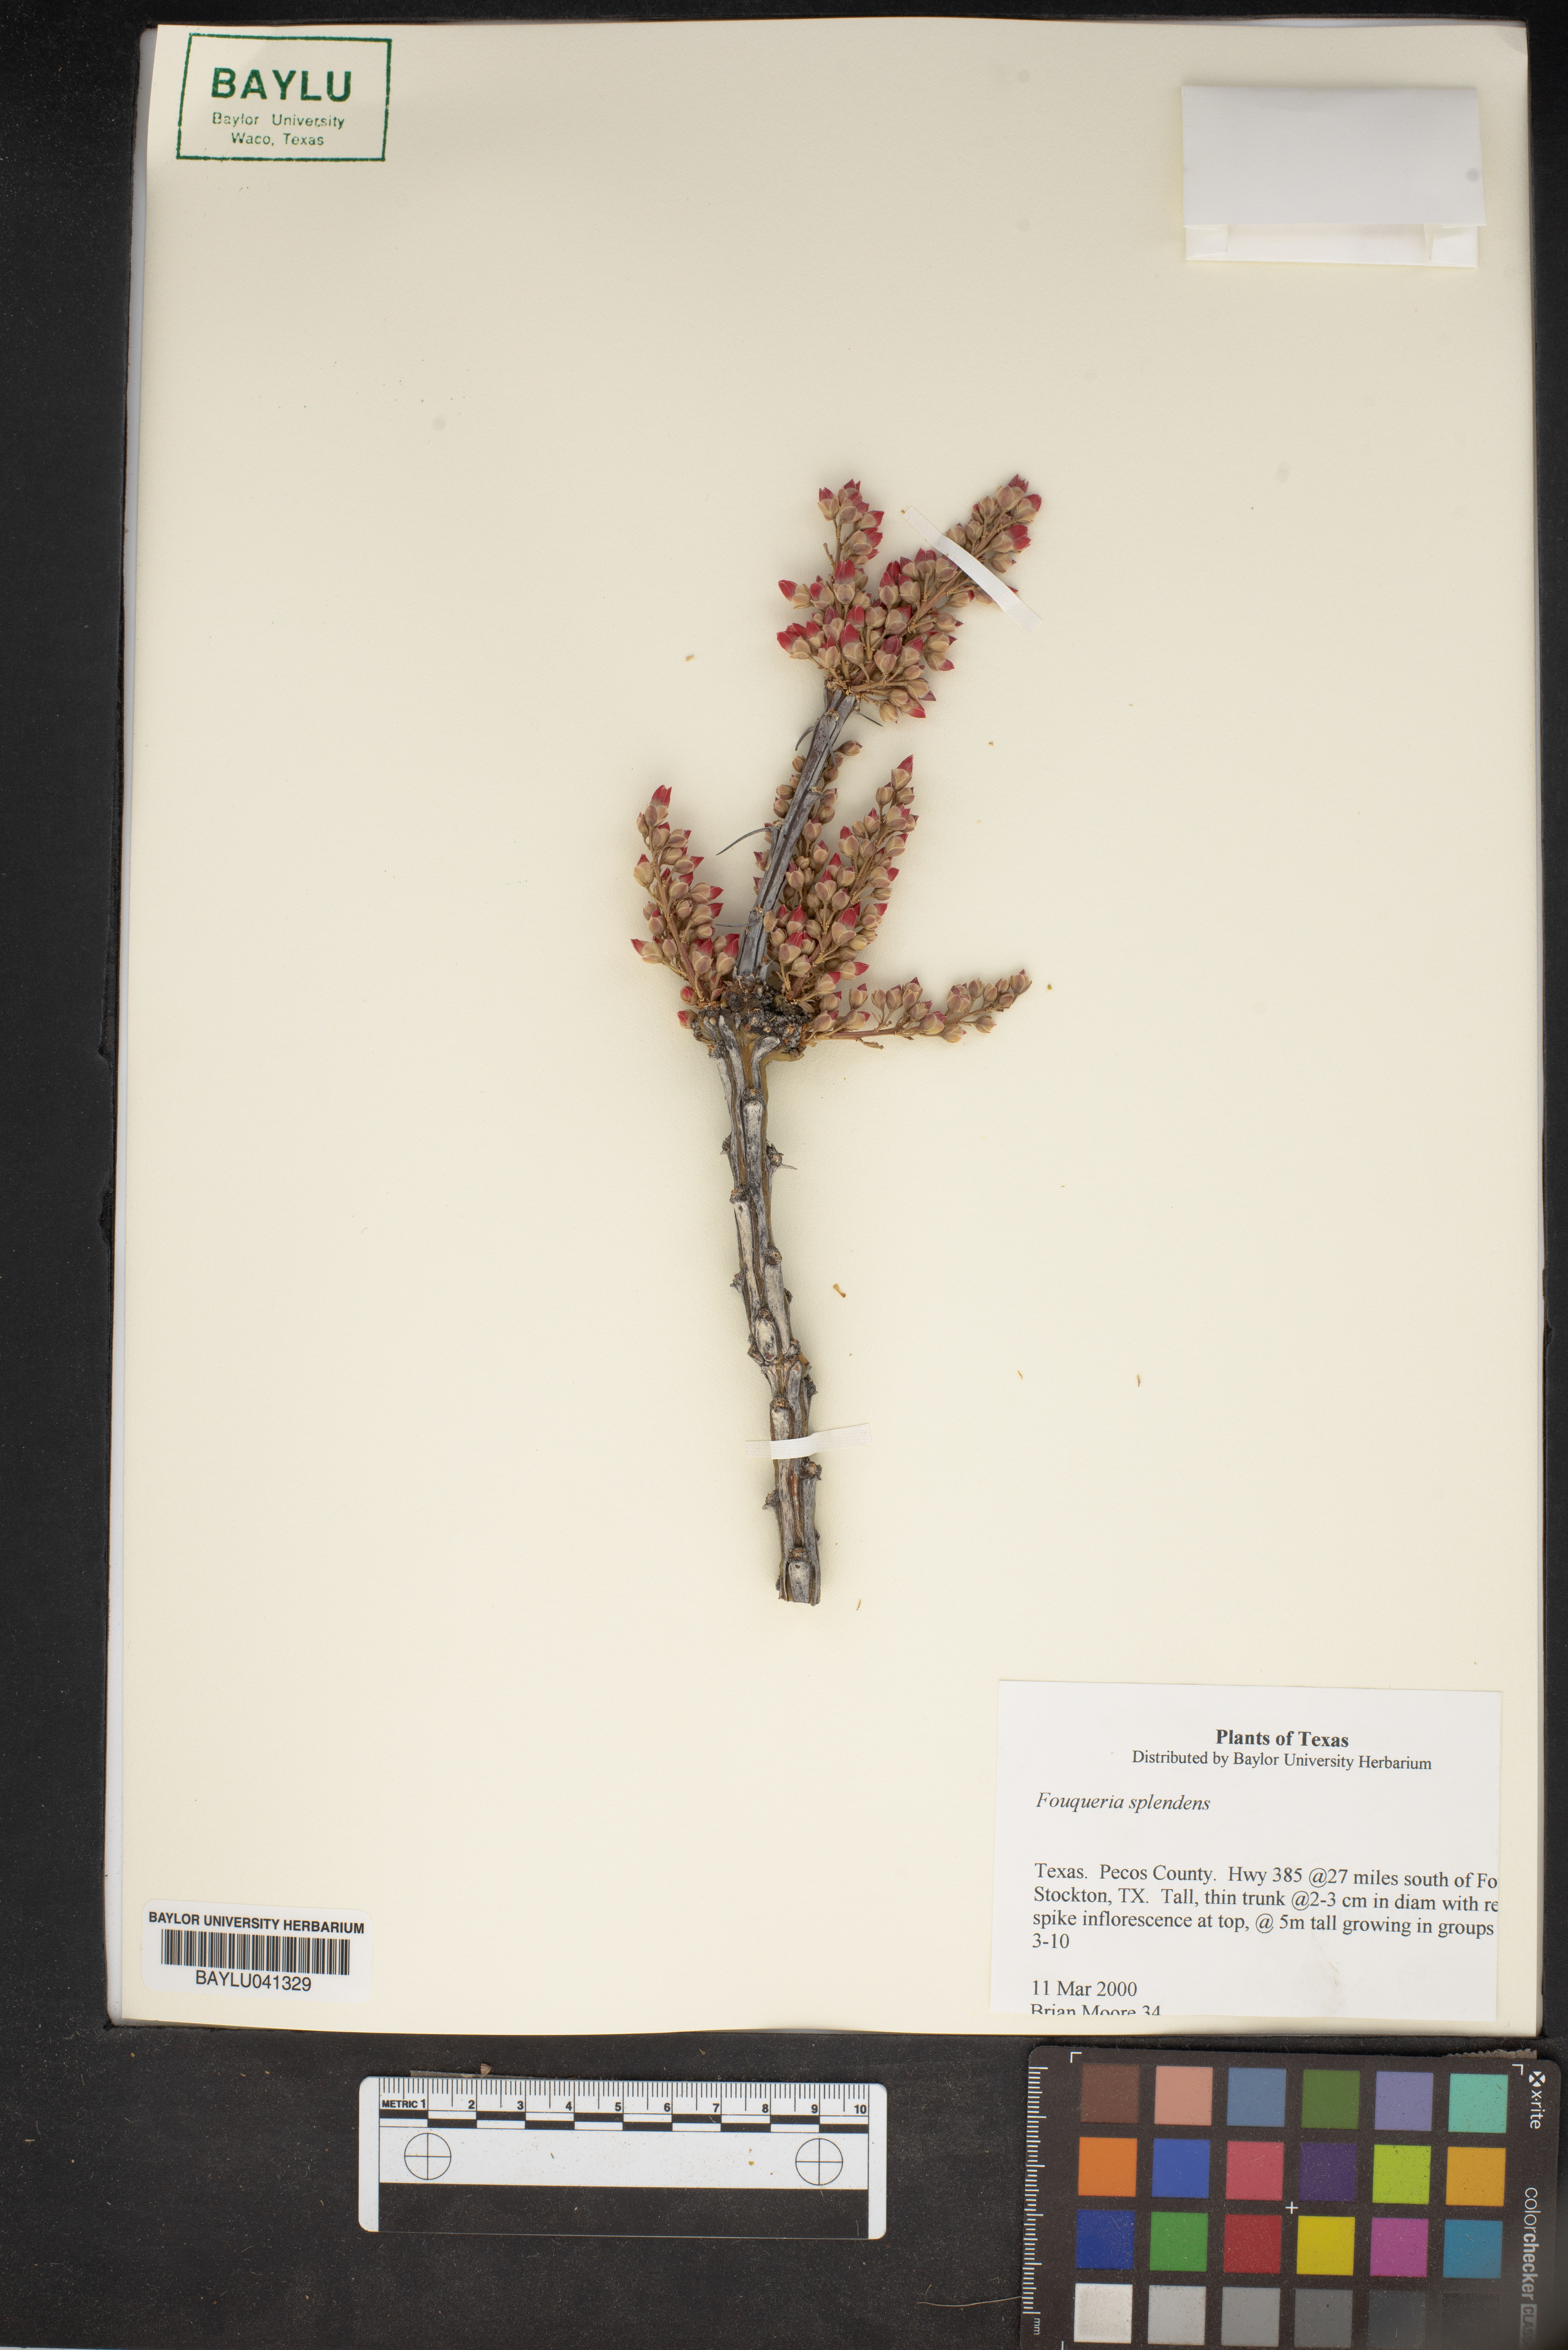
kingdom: Plantae
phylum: Tracheophyta
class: Magnoliopsida
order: Ericales
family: Fouquieriaceae
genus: Fouquieria
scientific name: Fouquieria splendens
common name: Vine-cactus
